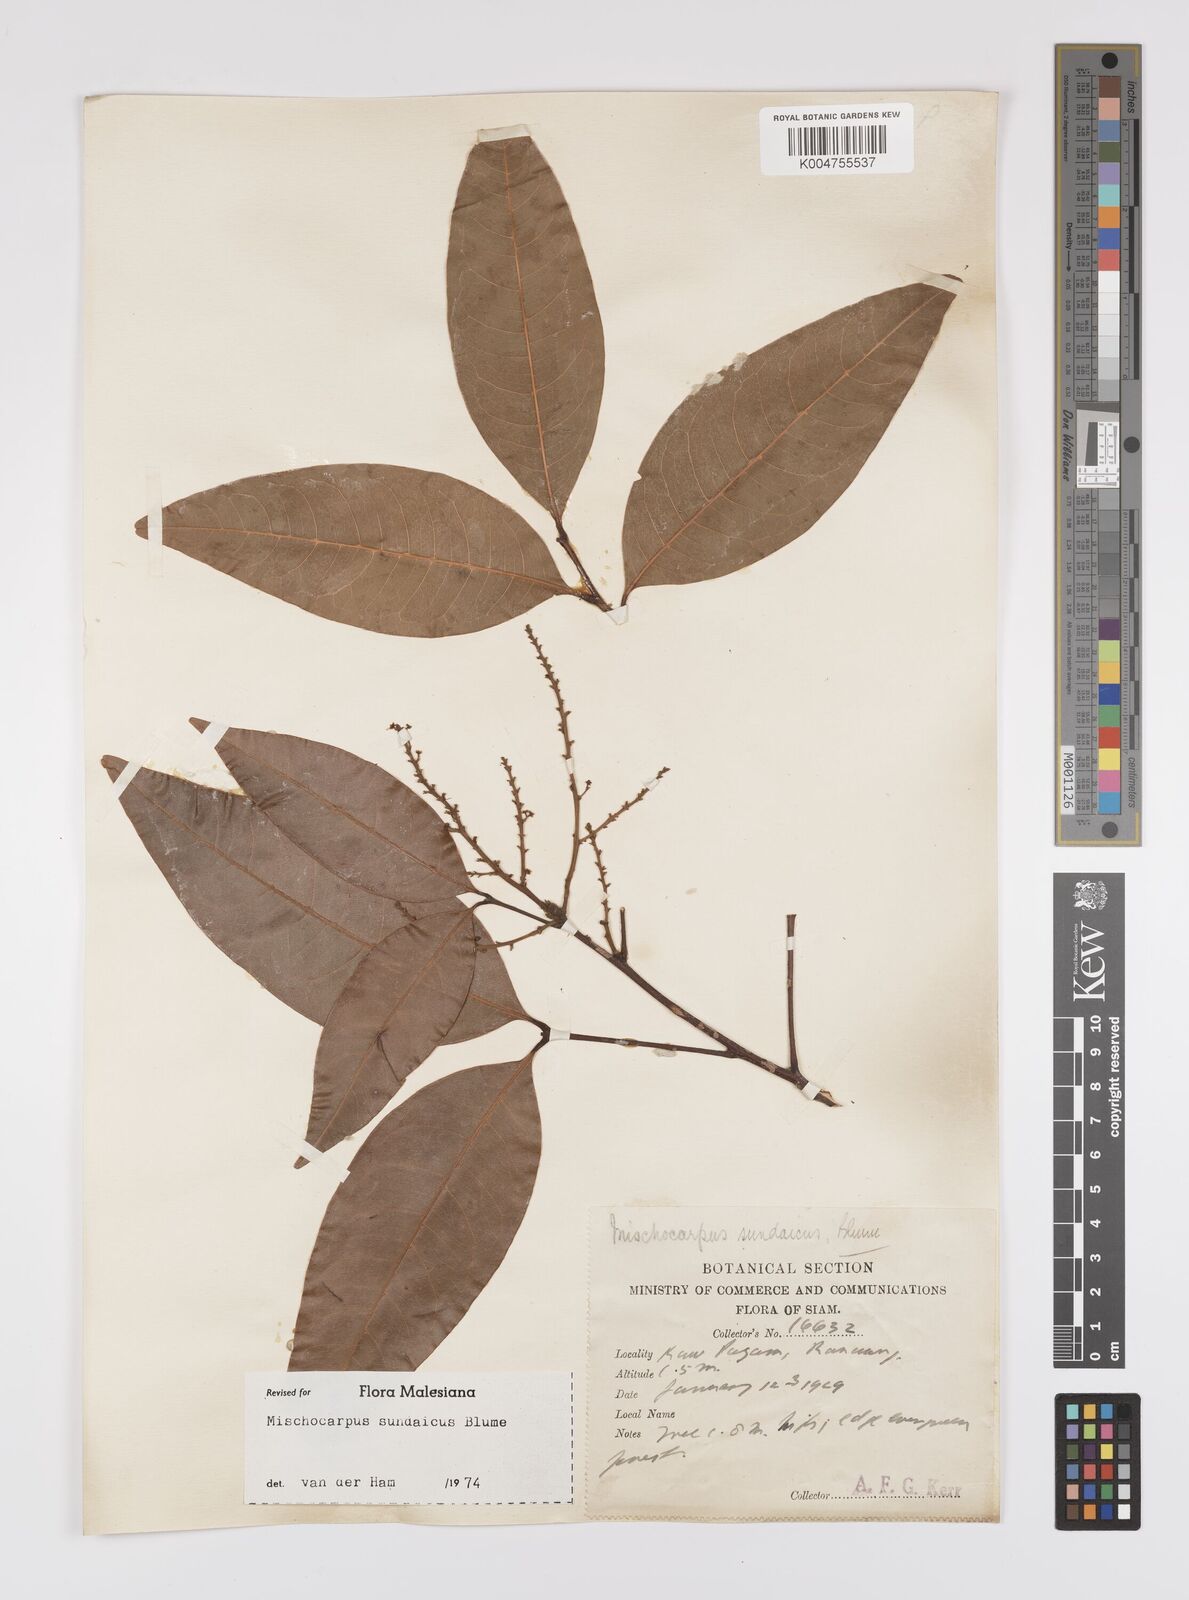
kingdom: Plantae
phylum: Tracheophyta
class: Magnoliopsida
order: Sapindales
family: Sapindaceae
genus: Mischocarpus
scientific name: Mischocarpus sundaicus
